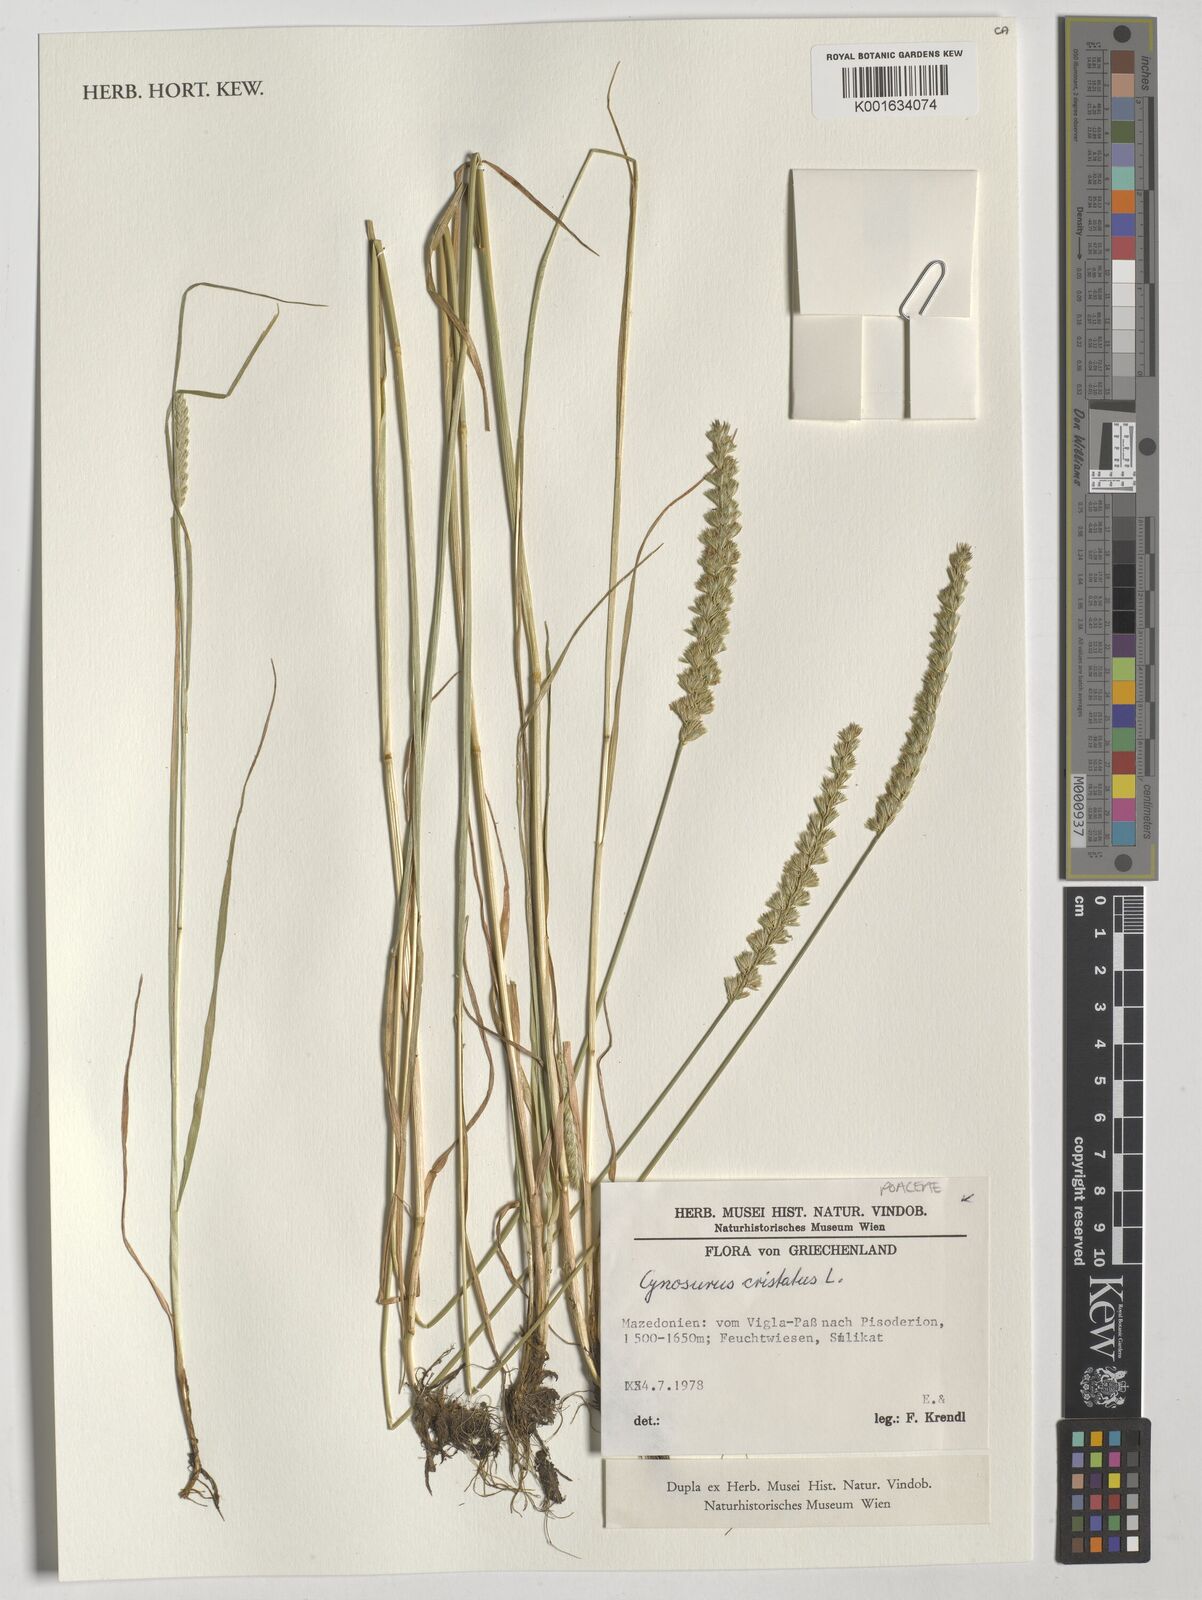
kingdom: Plantae
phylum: Tracheophyta
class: Liliopsida
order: Poales
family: Poaceae
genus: Cynosurus
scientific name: Cynosurus cristatus
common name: Crested dog's-tail
